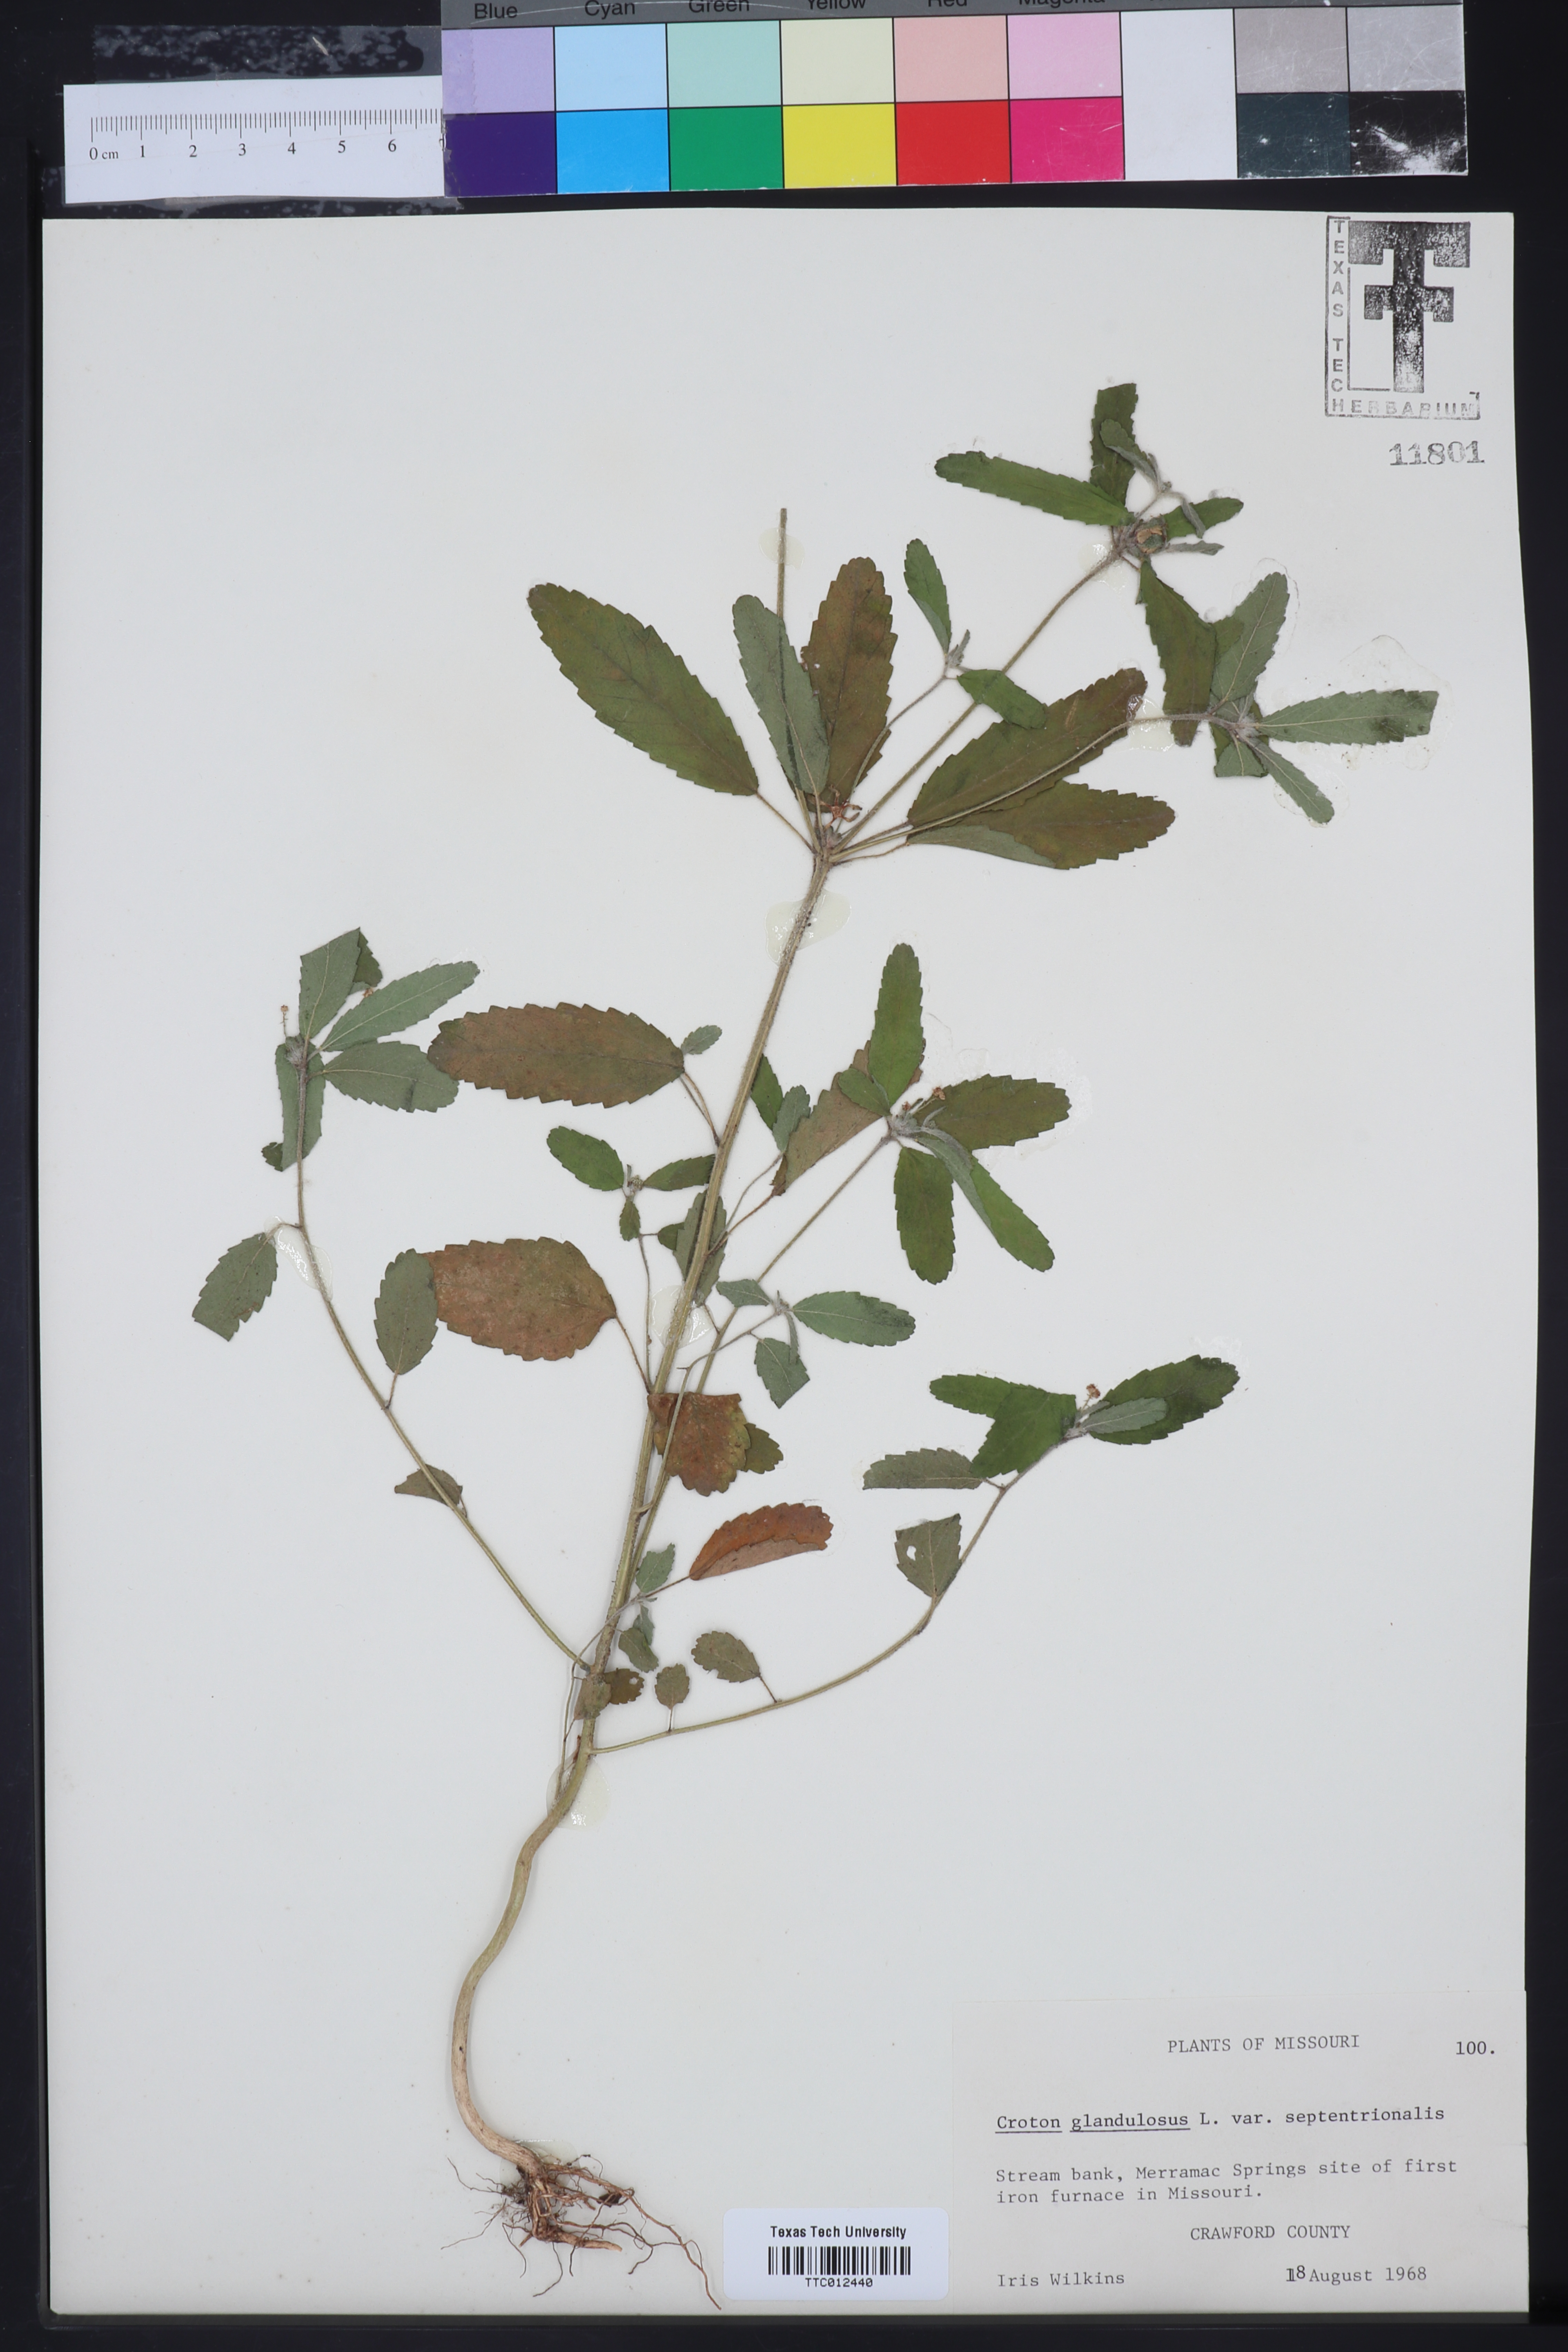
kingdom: Plantae
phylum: Tracheophyta
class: Magnoliopsida
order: Malpighiales
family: Euphorbiaceae
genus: Croton
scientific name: Croton glandulosus
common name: Tropic croton
